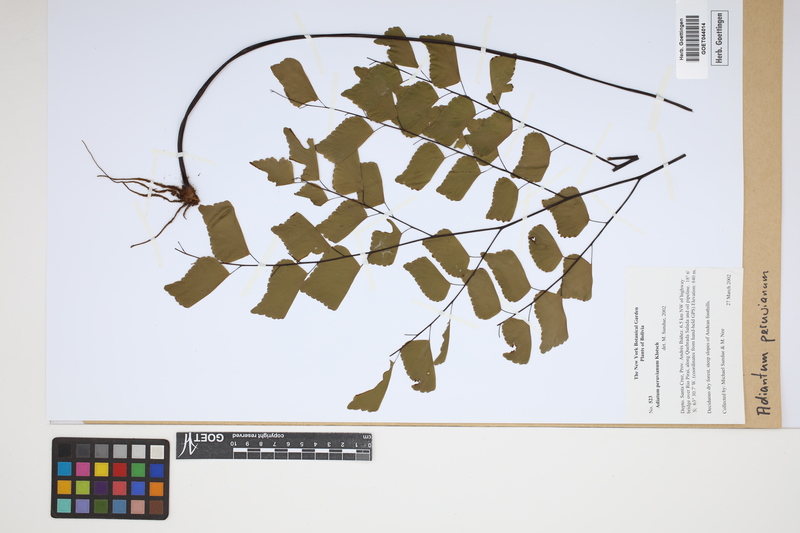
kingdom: Plantae
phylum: Tracheophyta
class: Polypodiopsida
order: Polypodiales
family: Pteridaceae
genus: Adiantum
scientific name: Adiantum peruvianum
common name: Silver-dollar maidenhair fern
